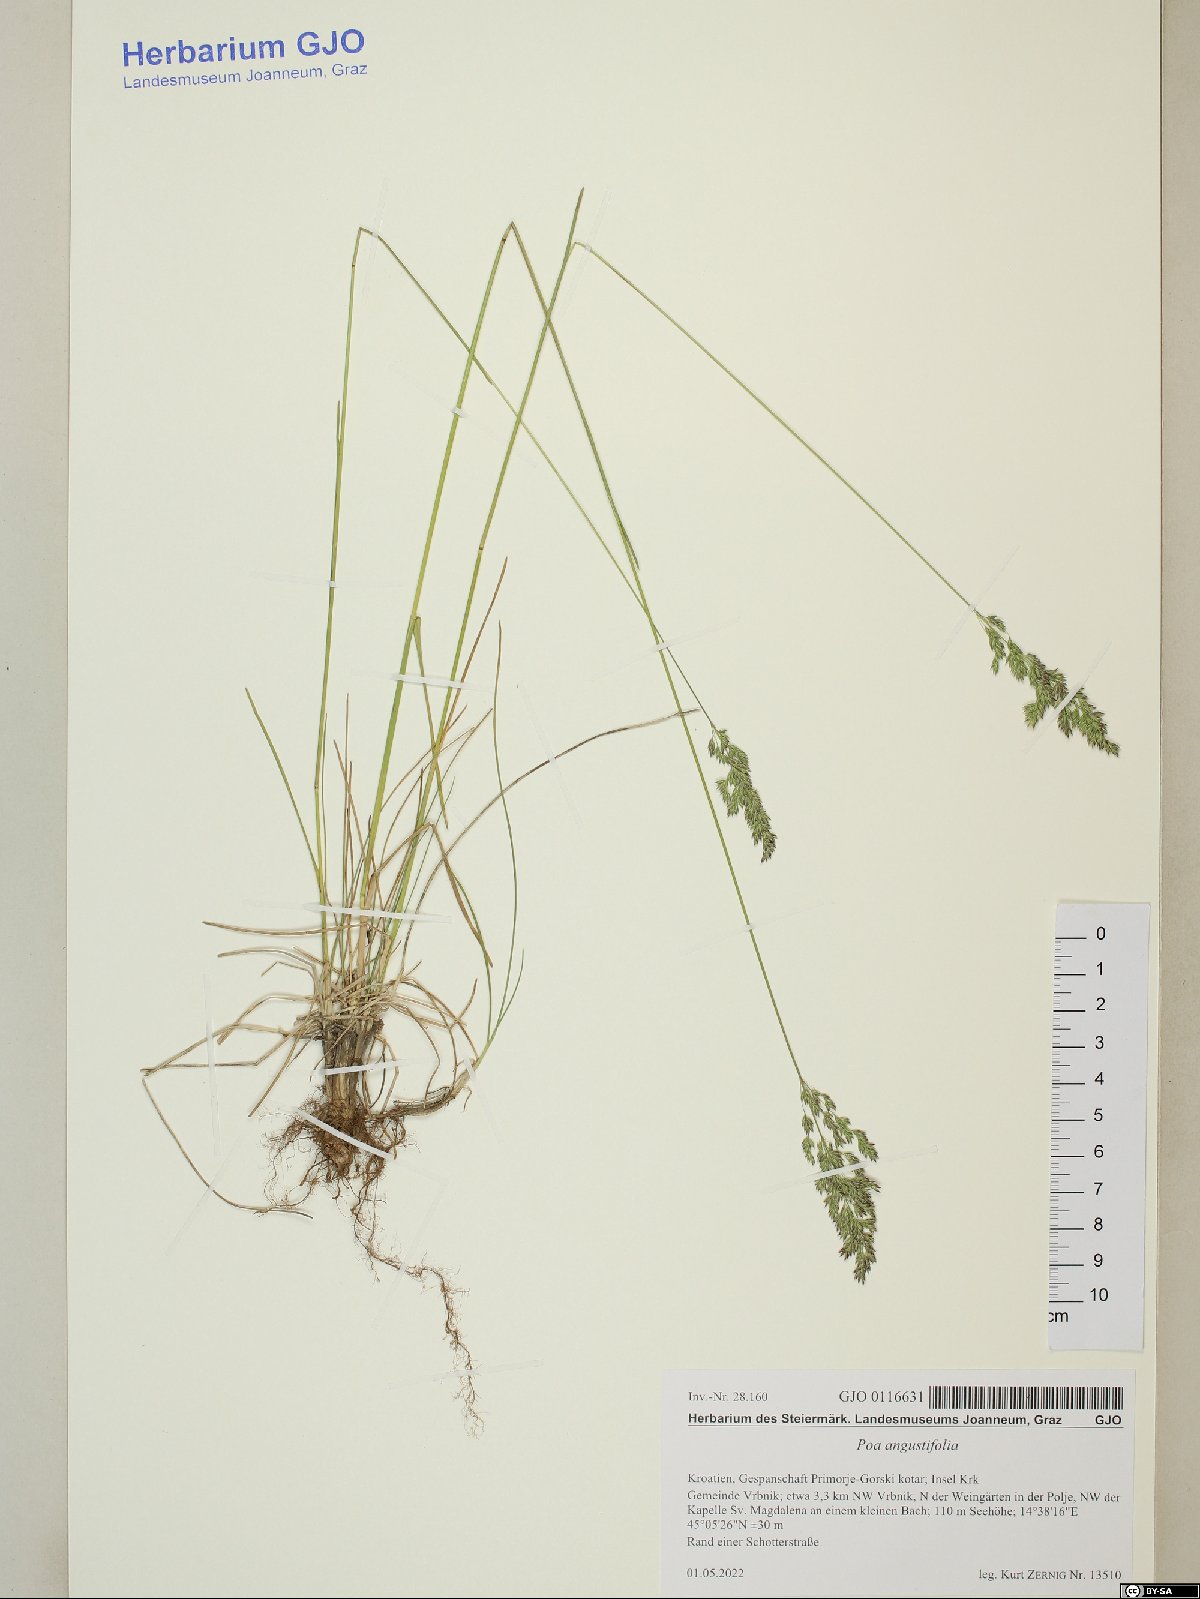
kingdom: Plantae
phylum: Tracheophyta
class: Liliopsida
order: Poales
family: Poaceae
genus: Poa
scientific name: Poa angustifolia
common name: Narrow-leaved meadow-grass
